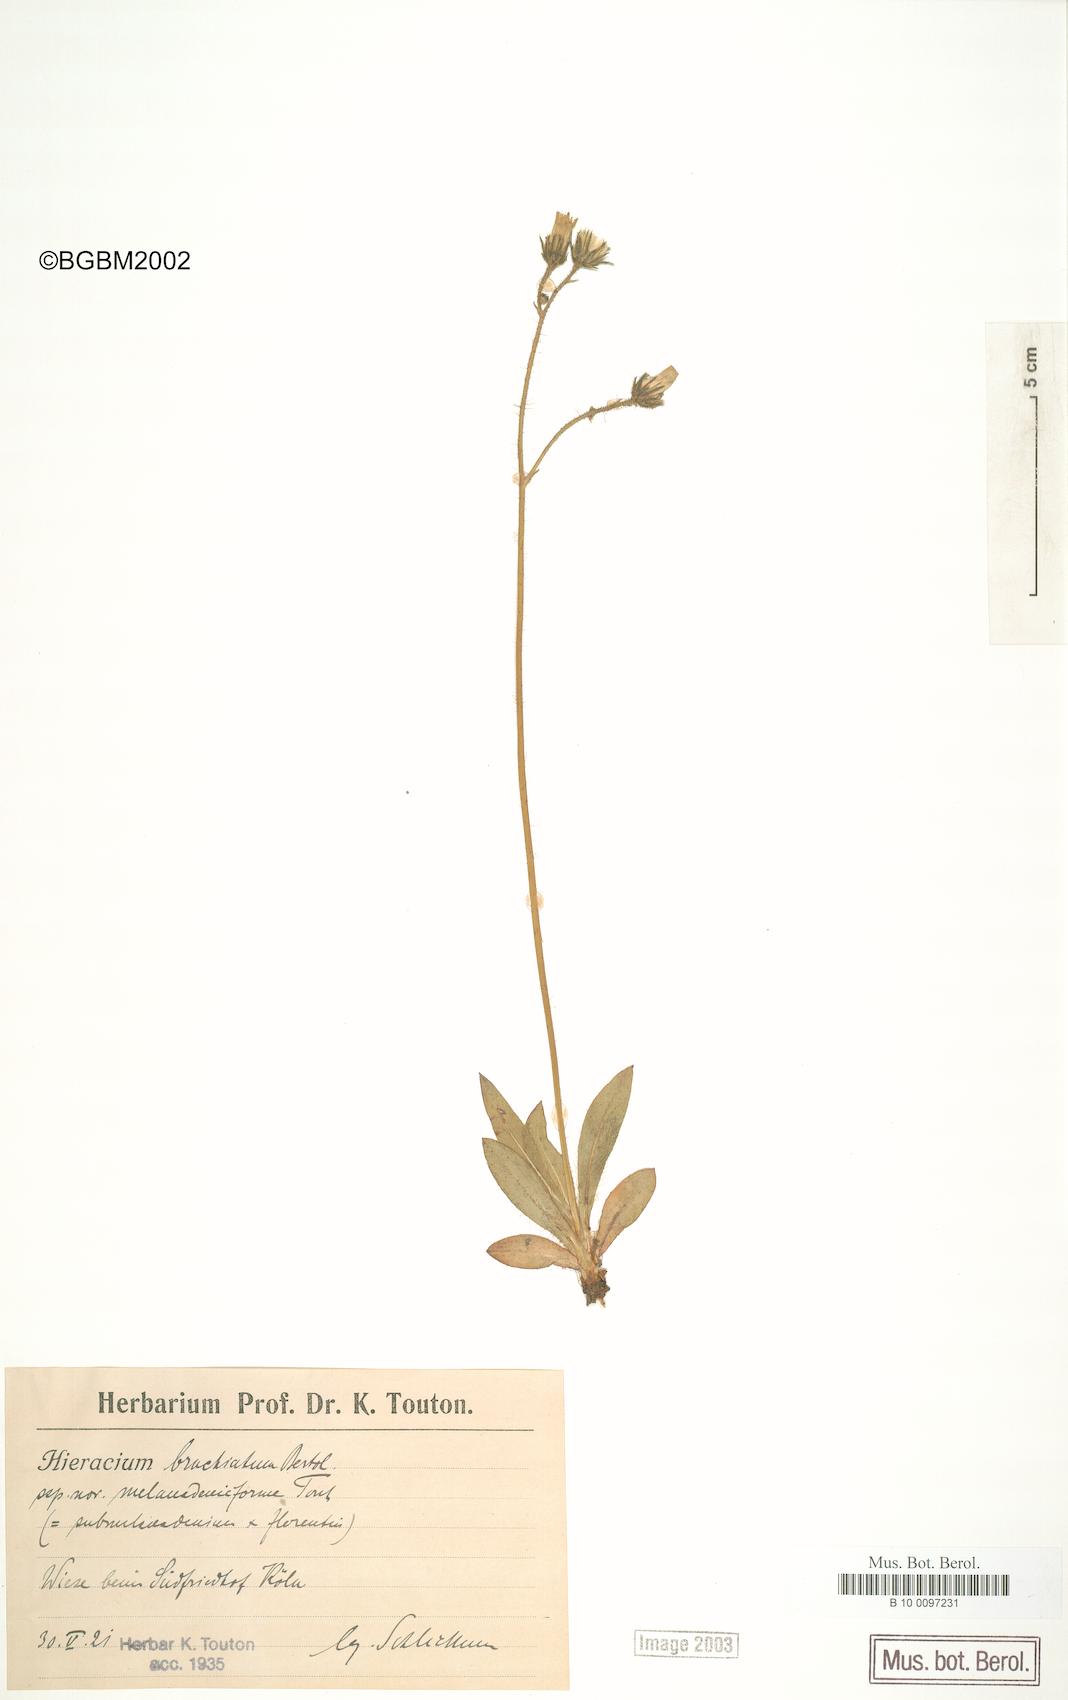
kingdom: Plantae
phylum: Tracheophyta
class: Magnoliopsida
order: Asterales
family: Asteraceae
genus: Pilosella
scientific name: Pilosella acutifolia
